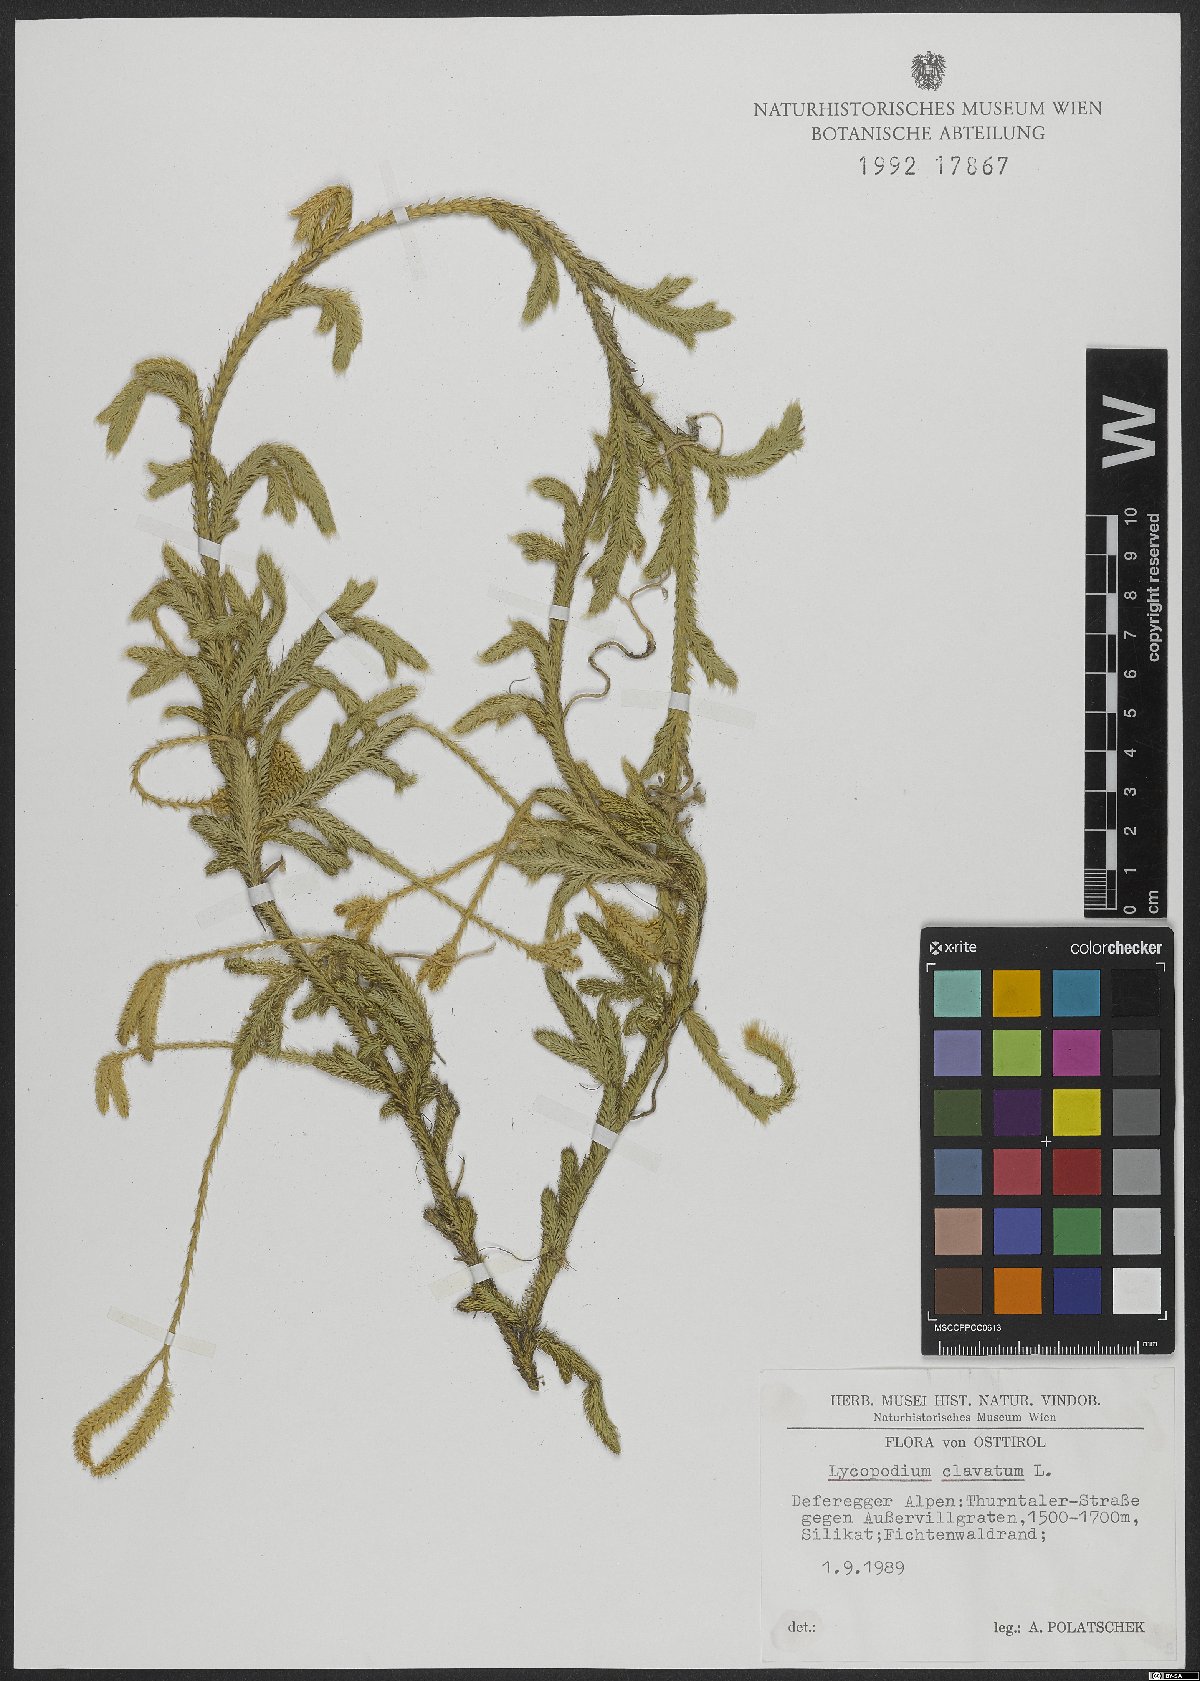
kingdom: Plantae
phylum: Tracheophyta
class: Lycopodiopsida
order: Lycopodiales
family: Lycopodiaceae
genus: Lycopodium
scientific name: Lycopodium clavatum
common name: Stag's-horn clubmoss
